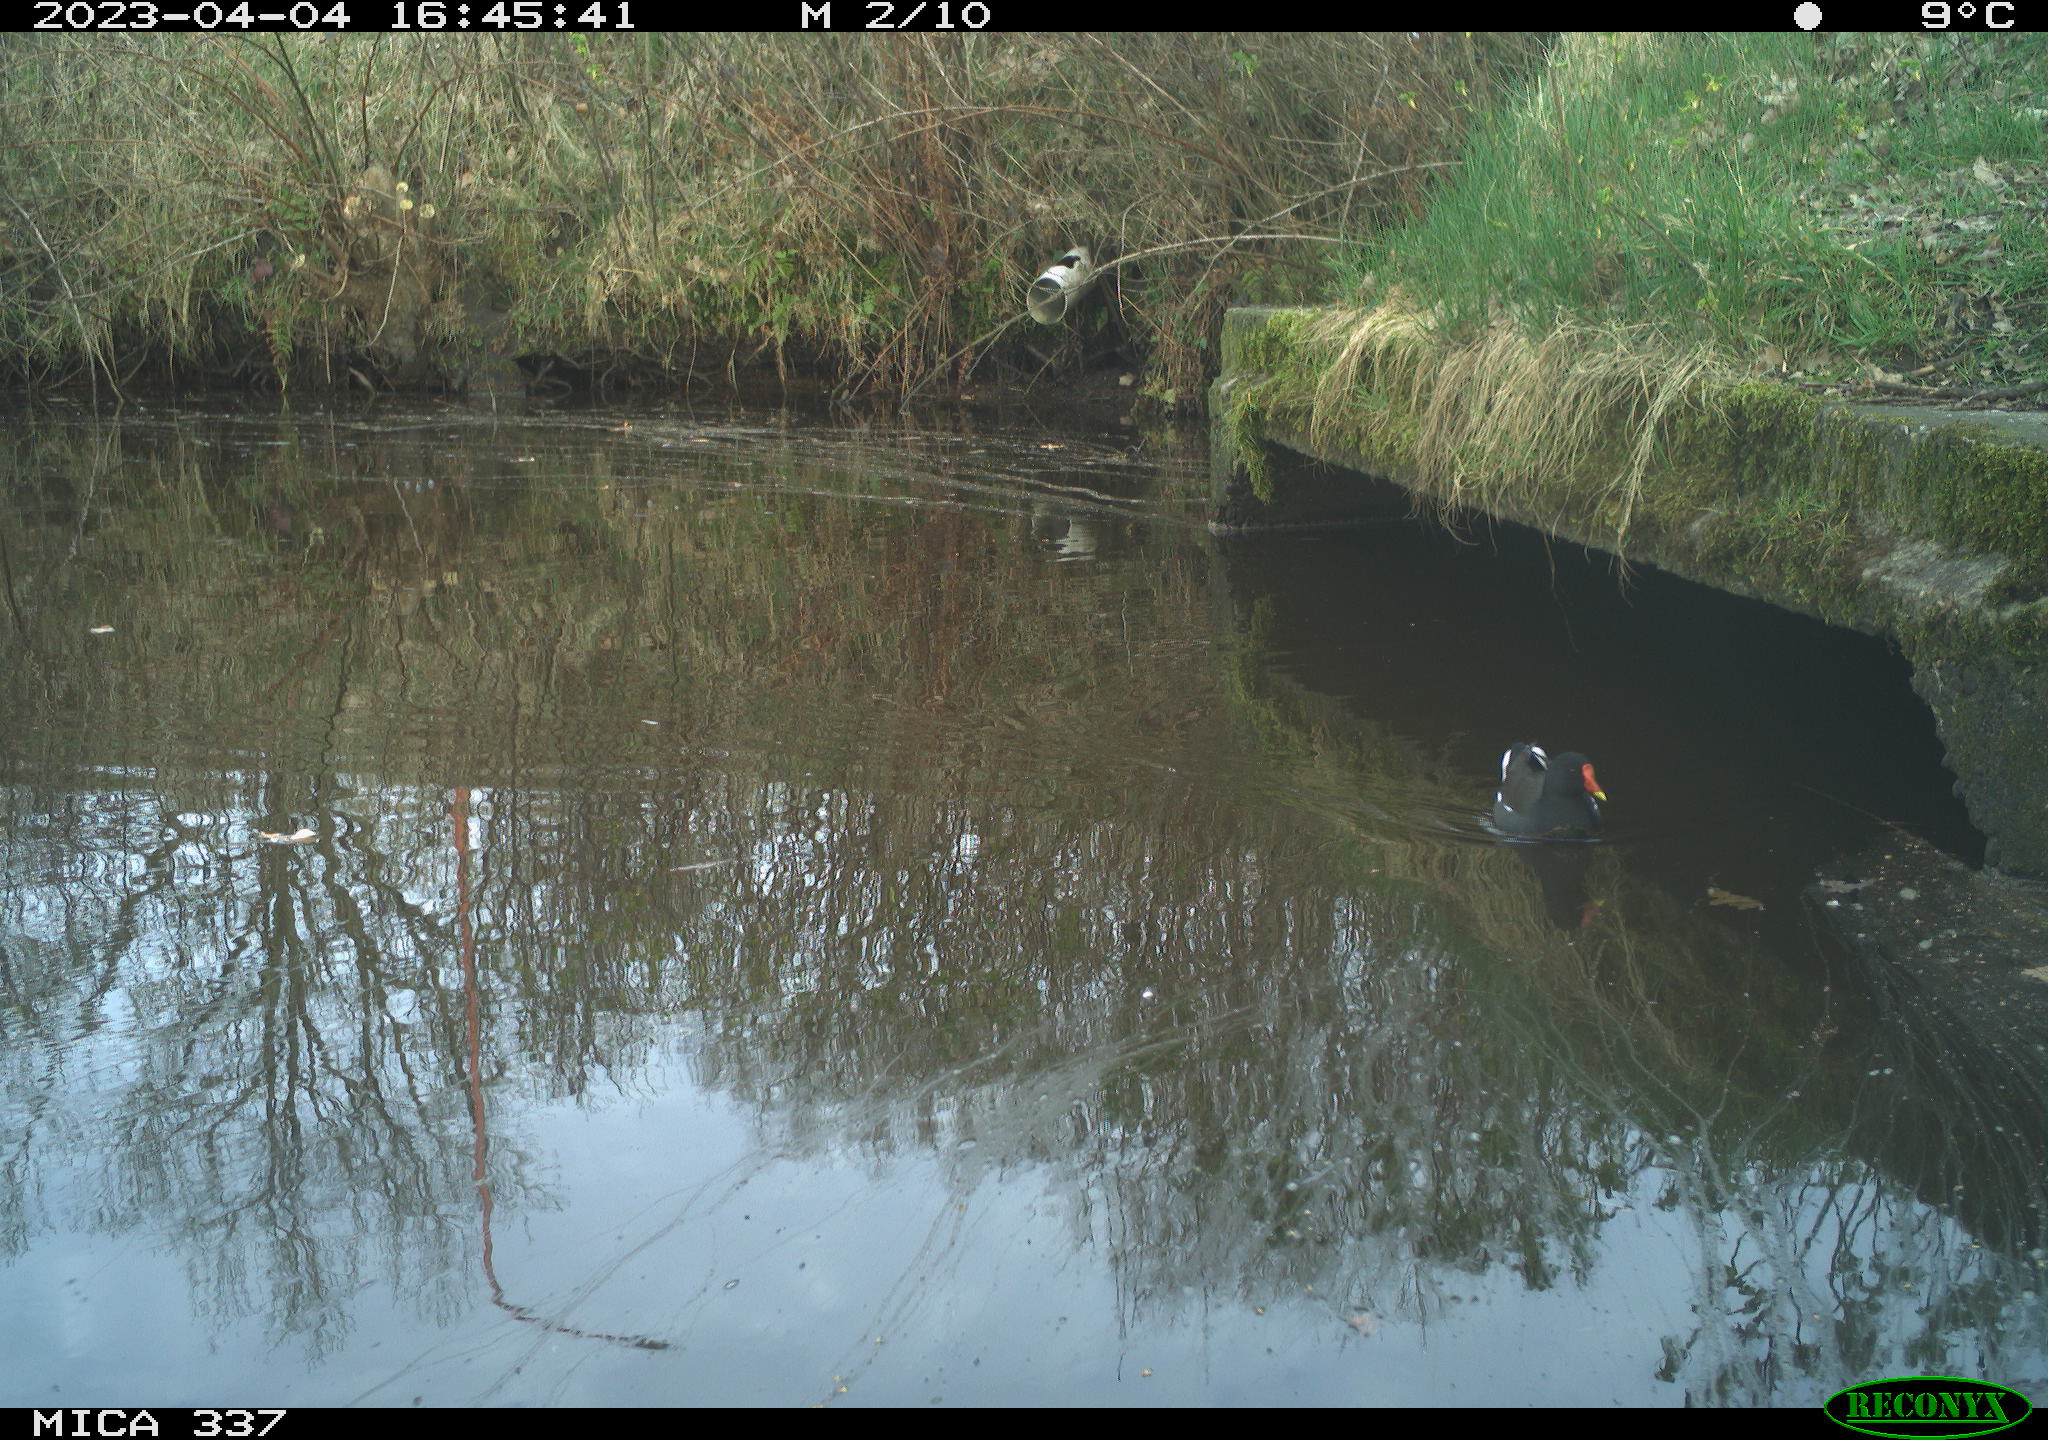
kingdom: Animalia
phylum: Chordata
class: Aves
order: Gruiformes
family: Rallidae
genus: Gallinula
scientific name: Gallinula chloropus
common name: Common moorhen
